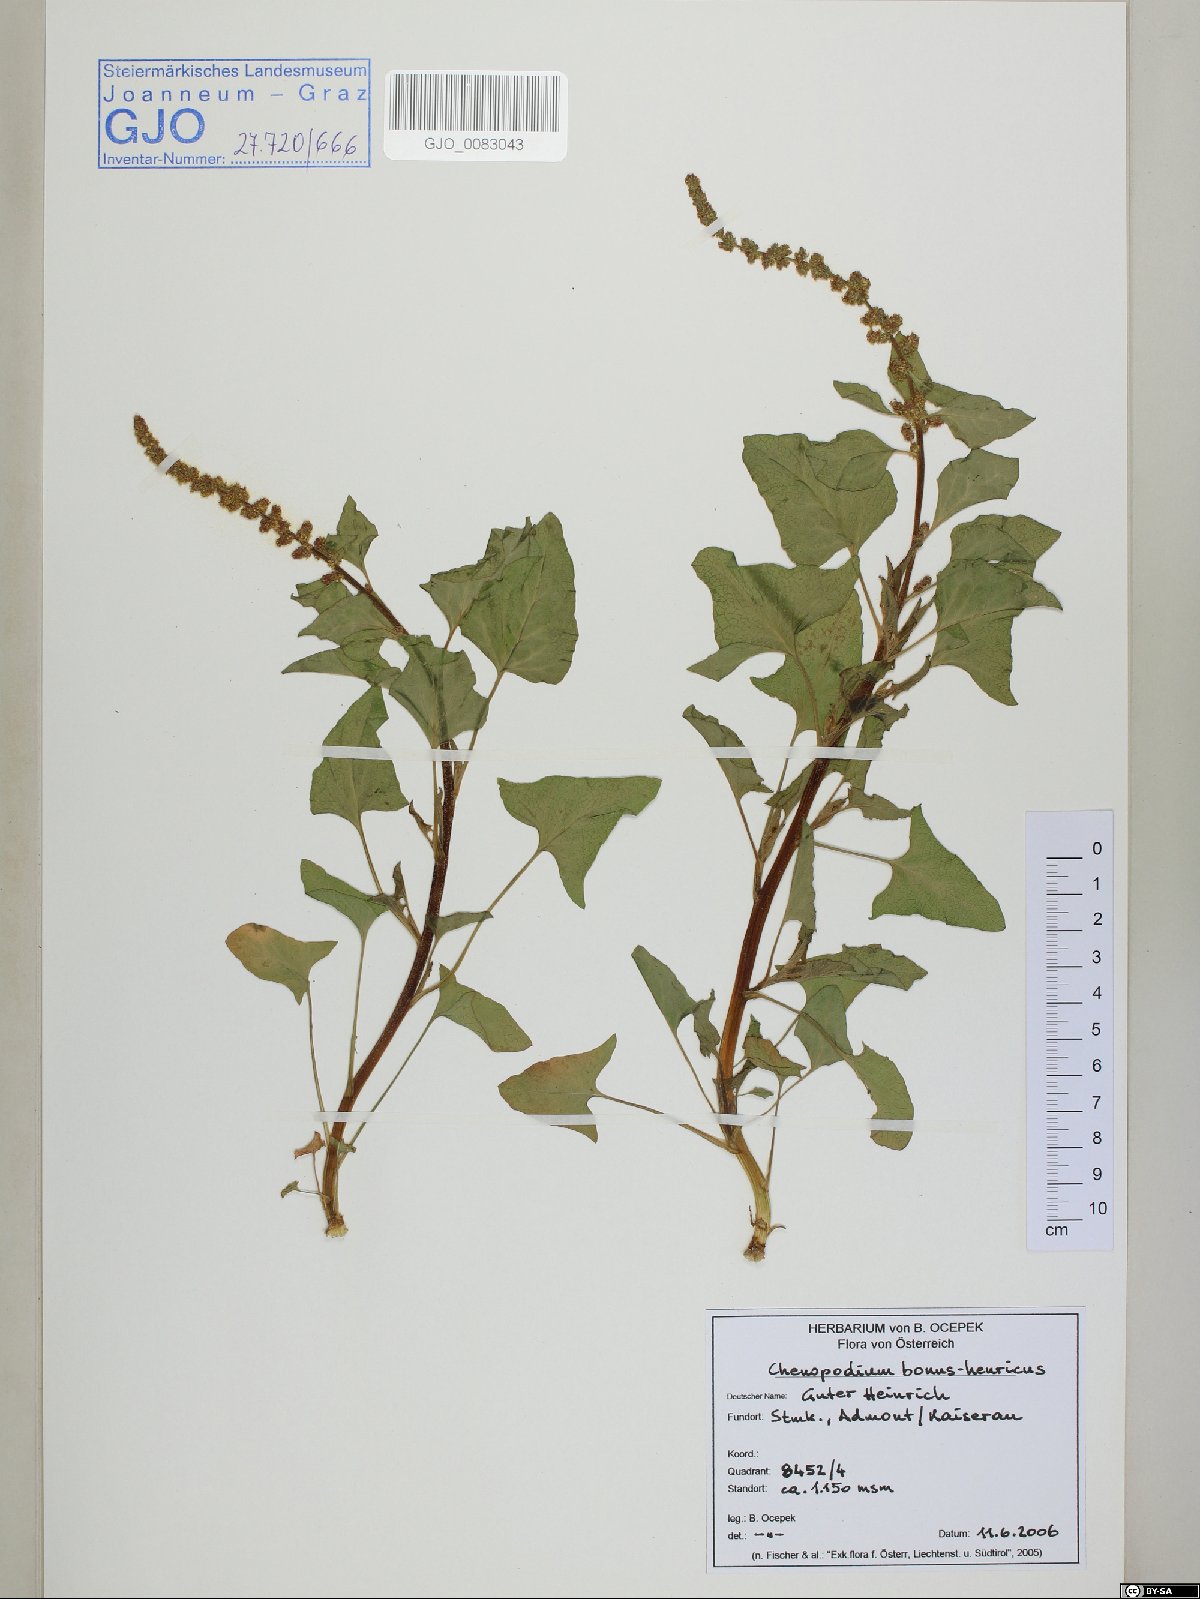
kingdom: Plantae
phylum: Tracheophyta
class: Magnoliopsida
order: Caryophyllales
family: Amaranthaceae
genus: Blitum
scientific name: Blitum bonus-henricus
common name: Good king henry
